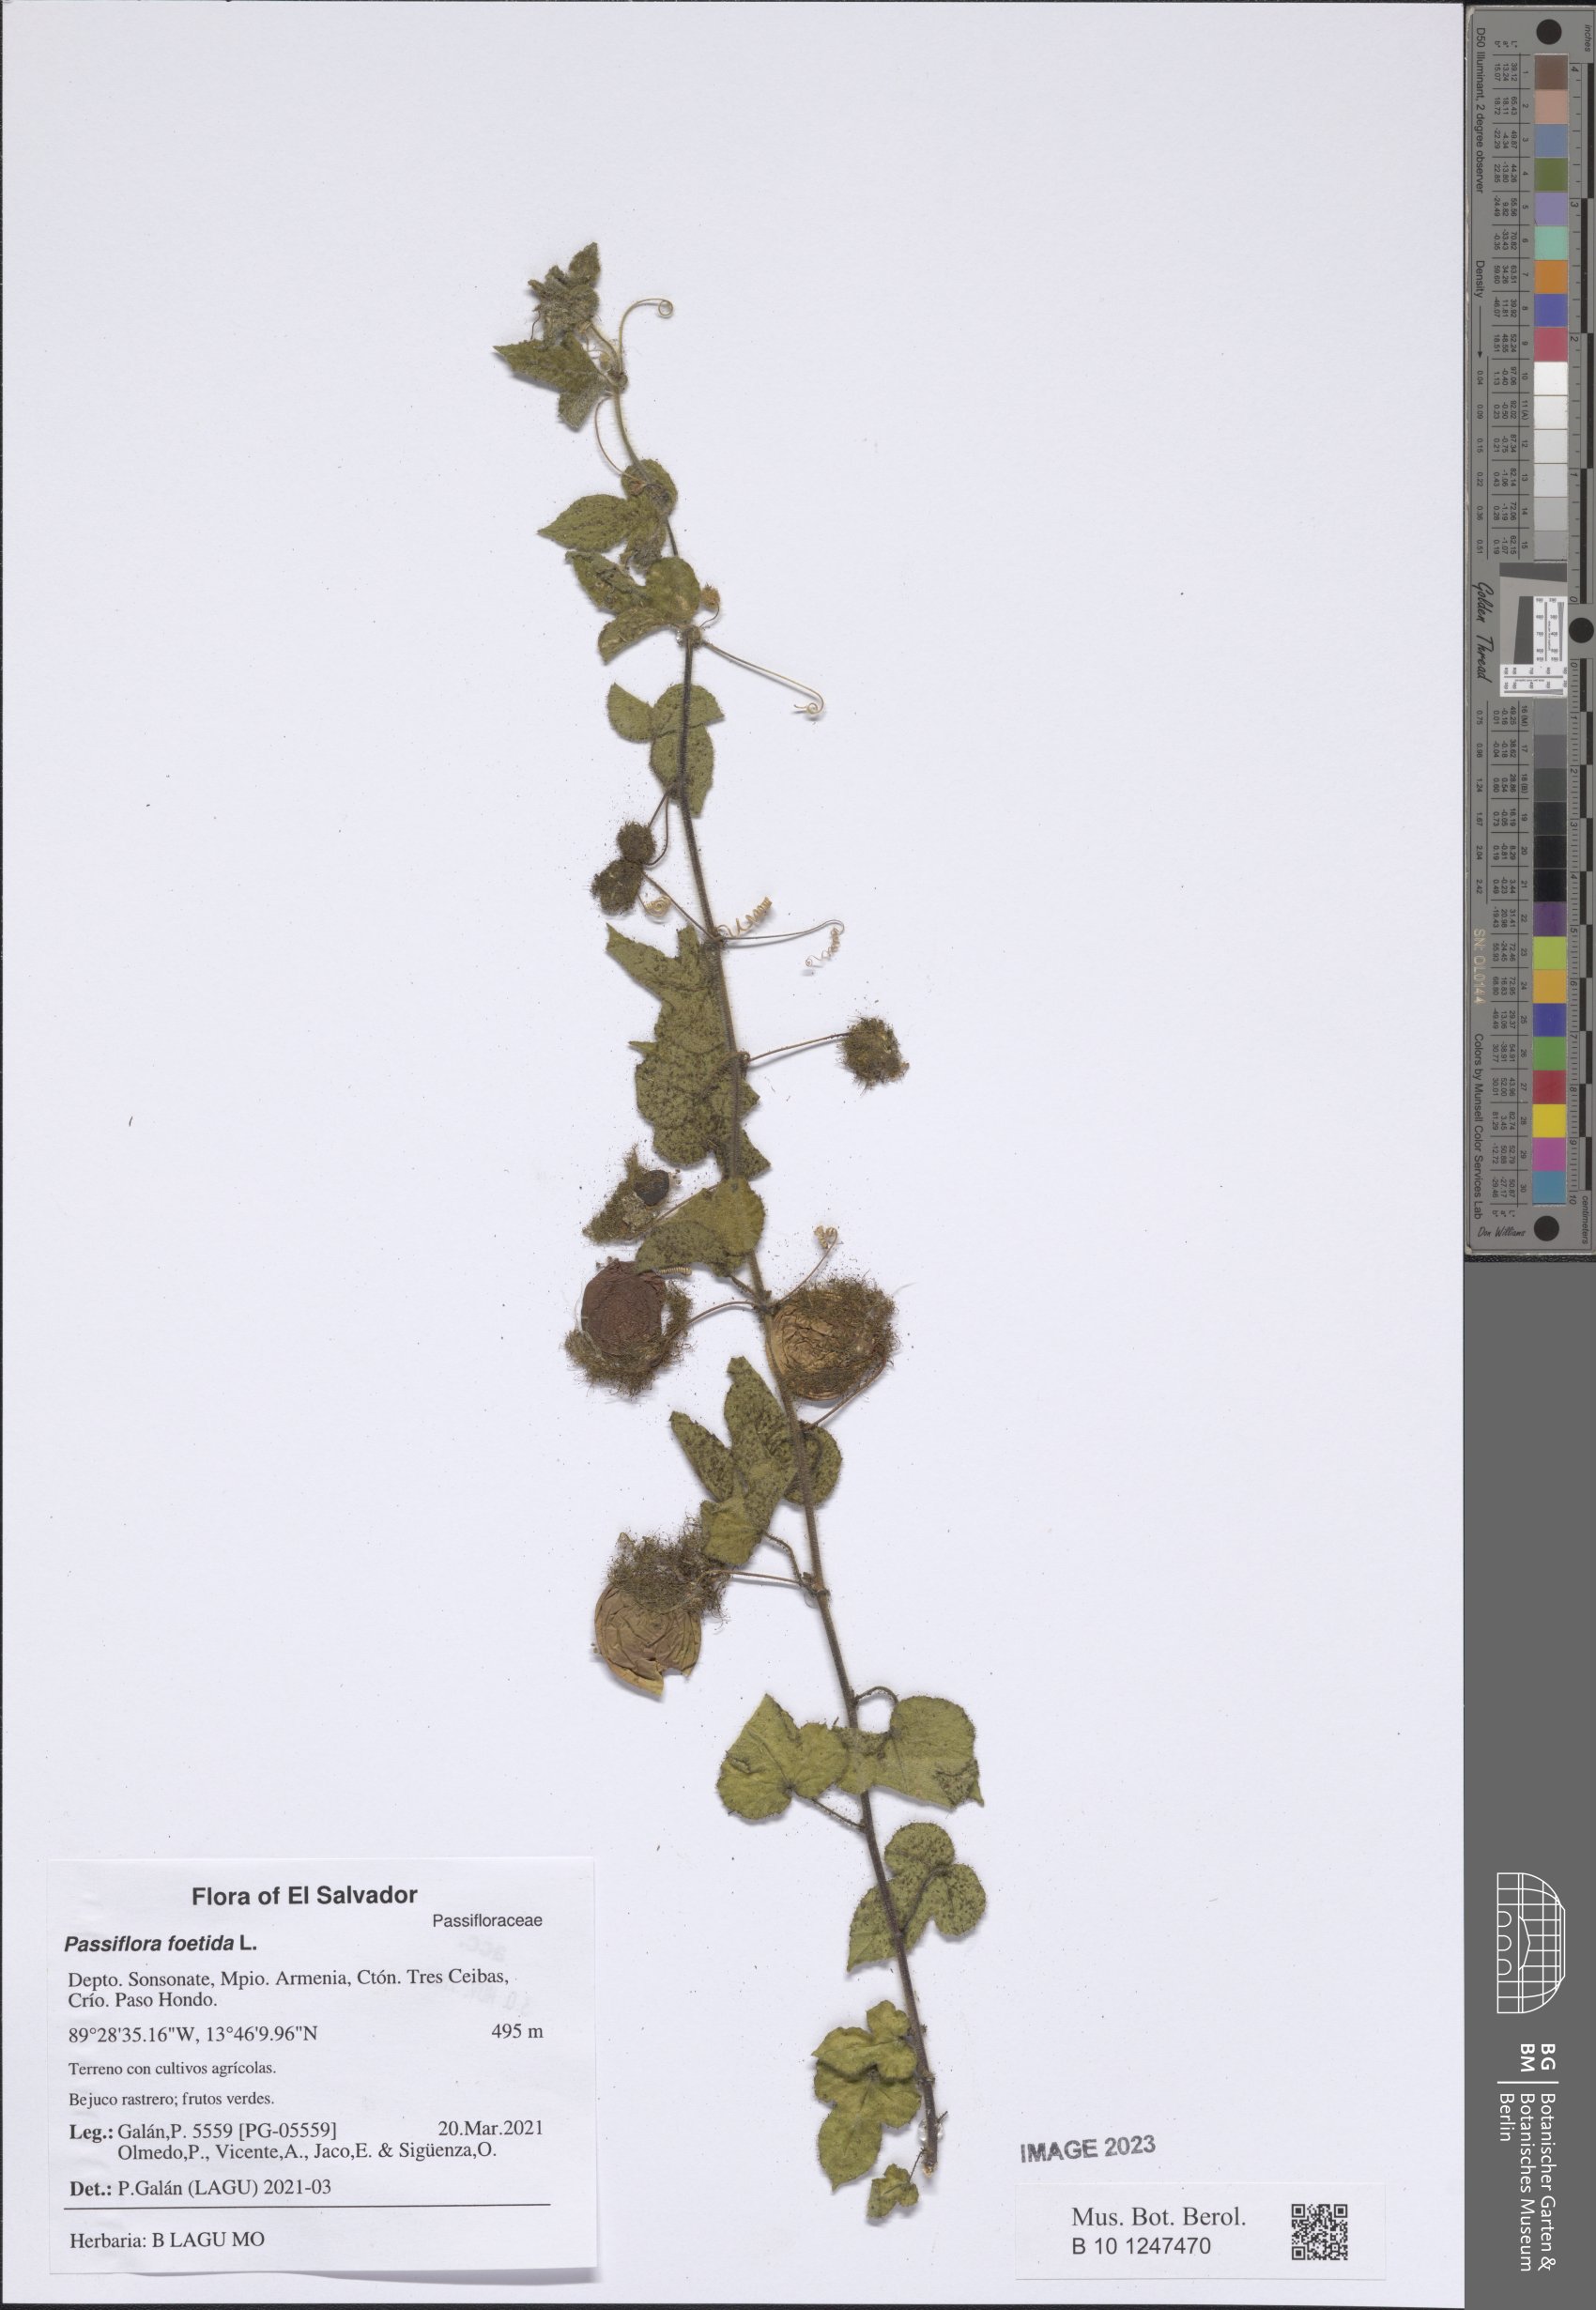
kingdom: Plantae
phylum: Tracheophyta
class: Magnoliopsida
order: Malpighiales
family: Passifloraceae
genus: Passiflora
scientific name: Passiflora foetida
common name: Fetid passionflower
